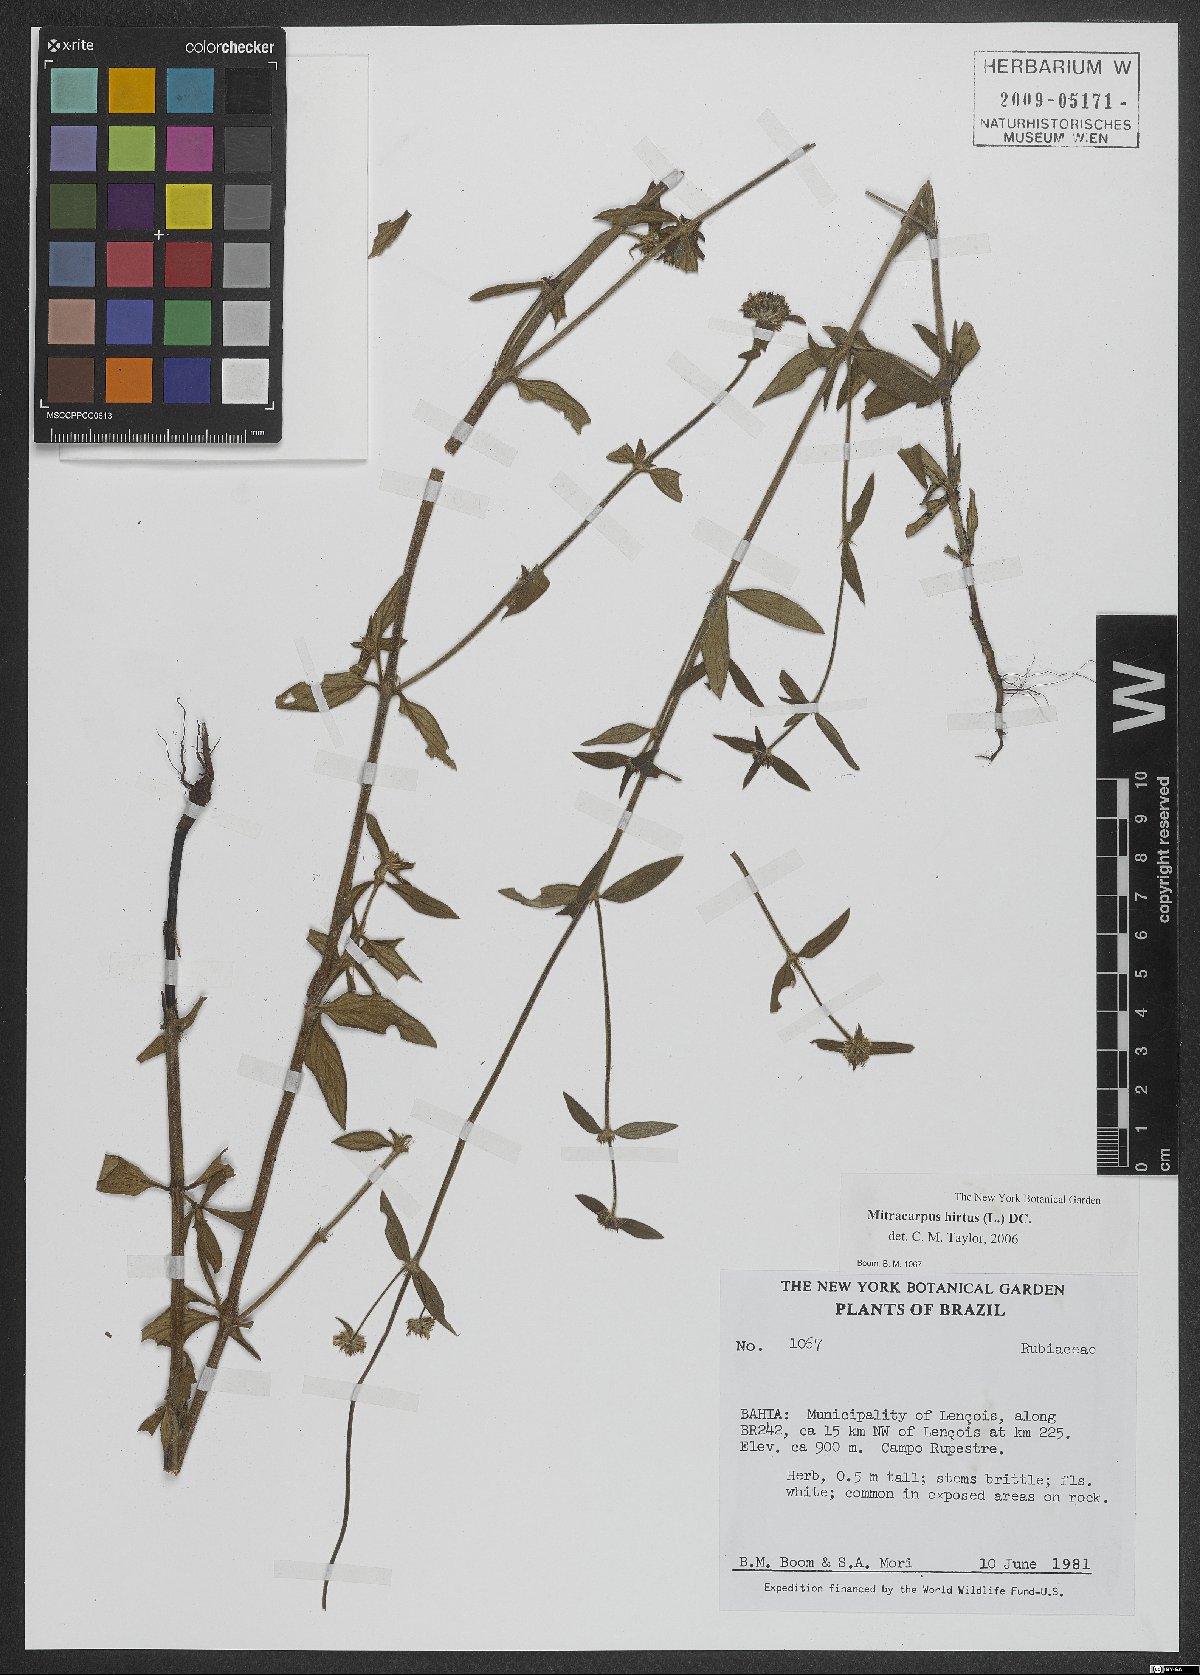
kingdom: Plantae
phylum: Tracheophyta
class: Magnoliopsida
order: Gentianales
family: Rubiaceae
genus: Mitracarpus
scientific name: Mitracarpus hirtus
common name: Tropical girdlepod
